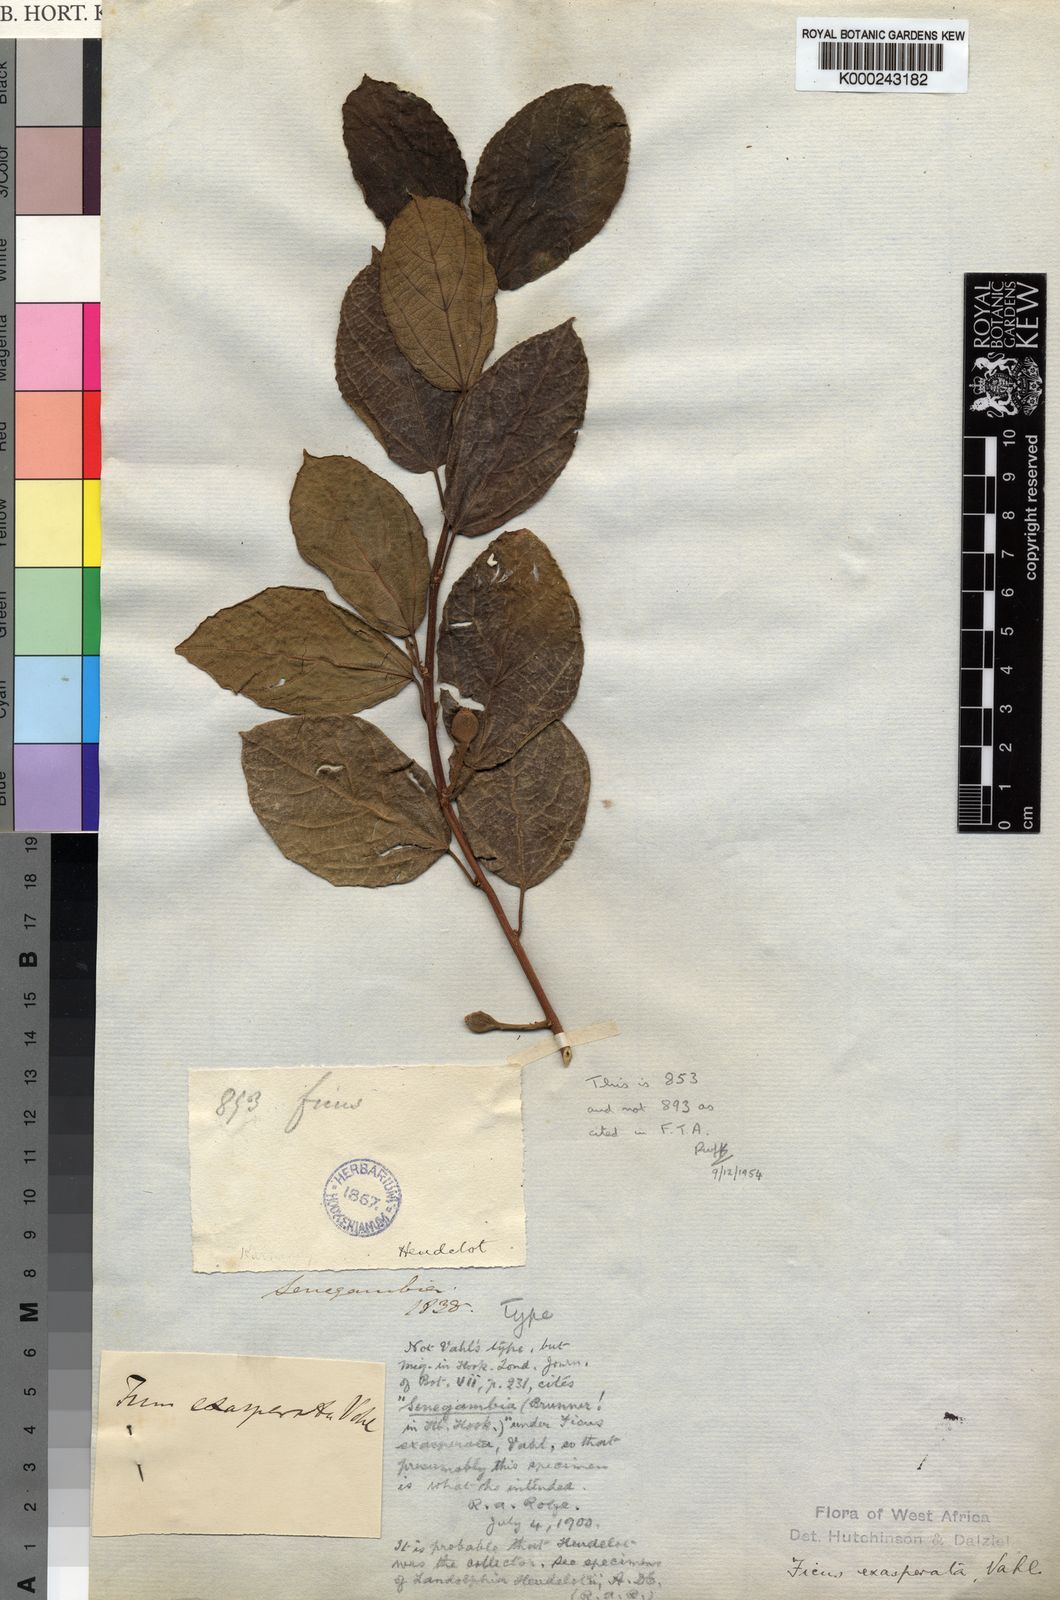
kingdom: Plantae
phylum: Tracheophyta
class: Magnoliopsida
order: Rosales
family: Moraceae
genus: Ficus
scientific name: Ficus exasperata
